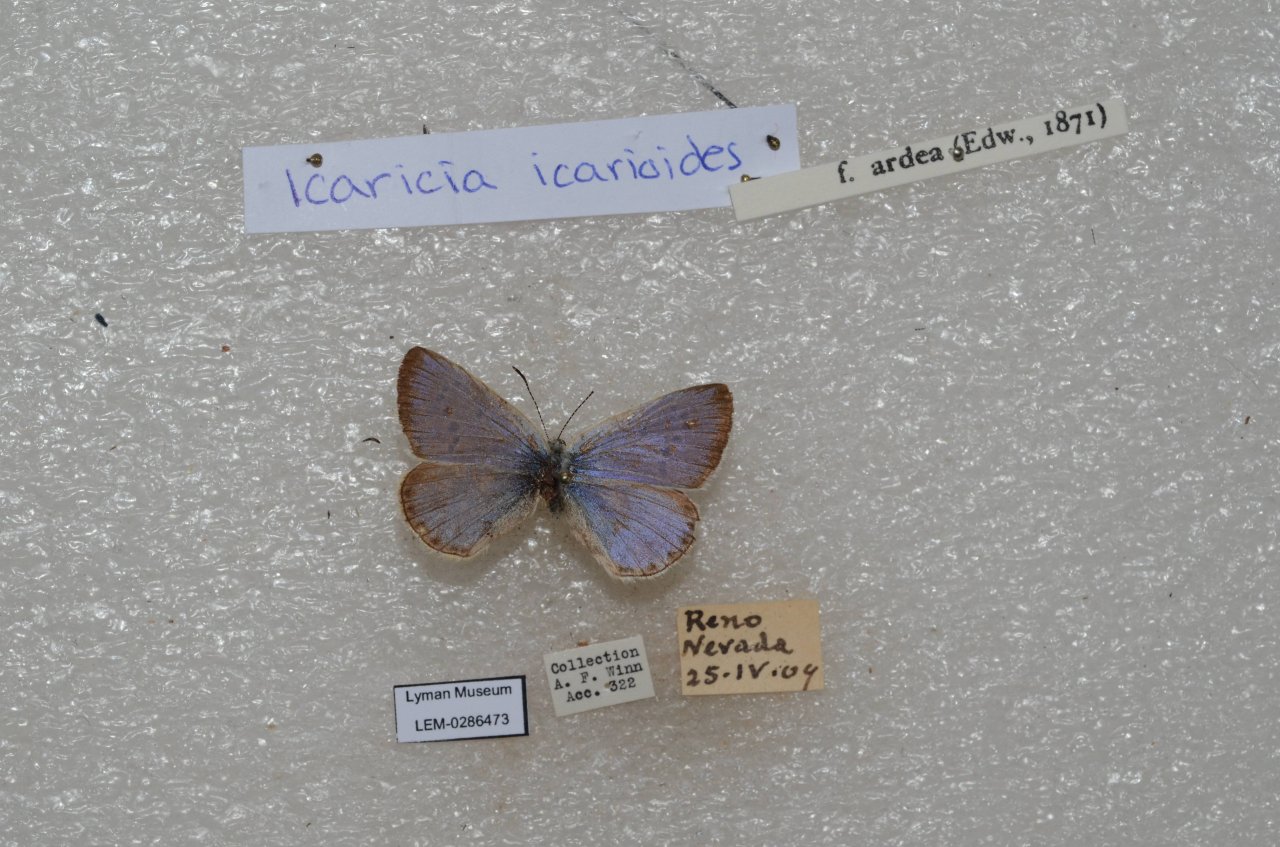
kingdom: Animalia
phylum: Arthropoda
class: Insecta
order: Lepidoptera
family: Lycaenidae
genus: Icaricia
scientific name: Icaricia icarioides
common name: Boisduval's Blue
